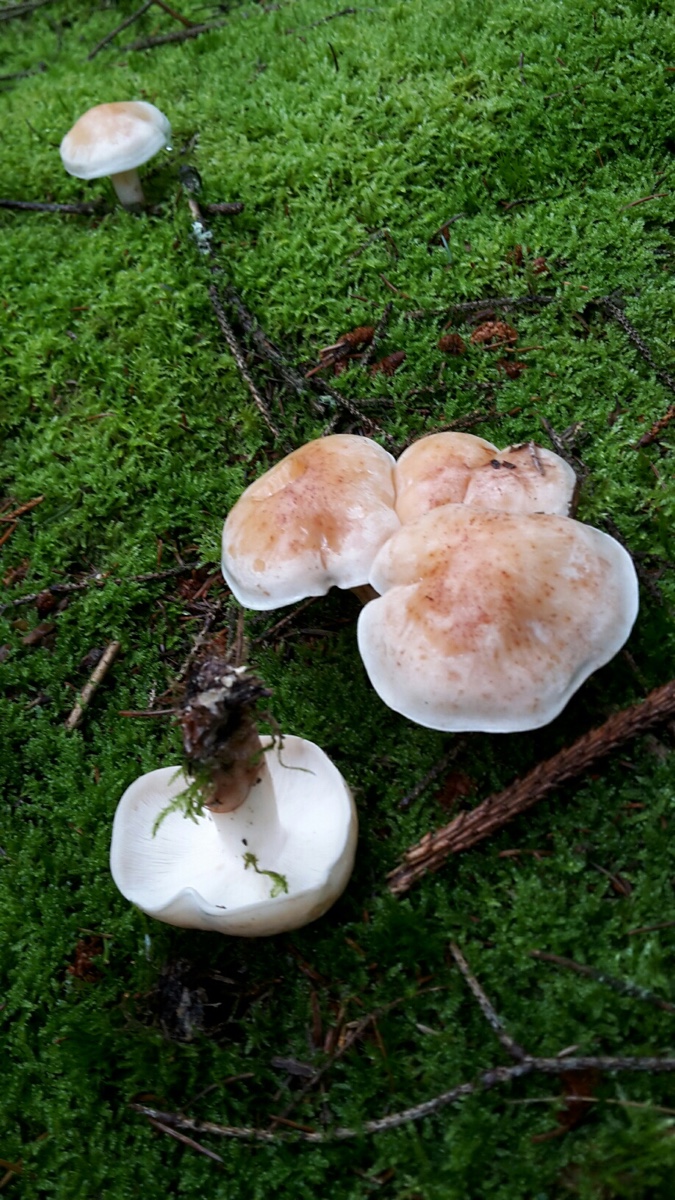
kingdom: Fungi
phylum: Basidiomycota
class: Agaricomycetes
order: Agaricales
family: Omphalotaceae
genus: Rhodocollybia
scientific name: Rhodocollybia maculata
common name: plettet fladhat
